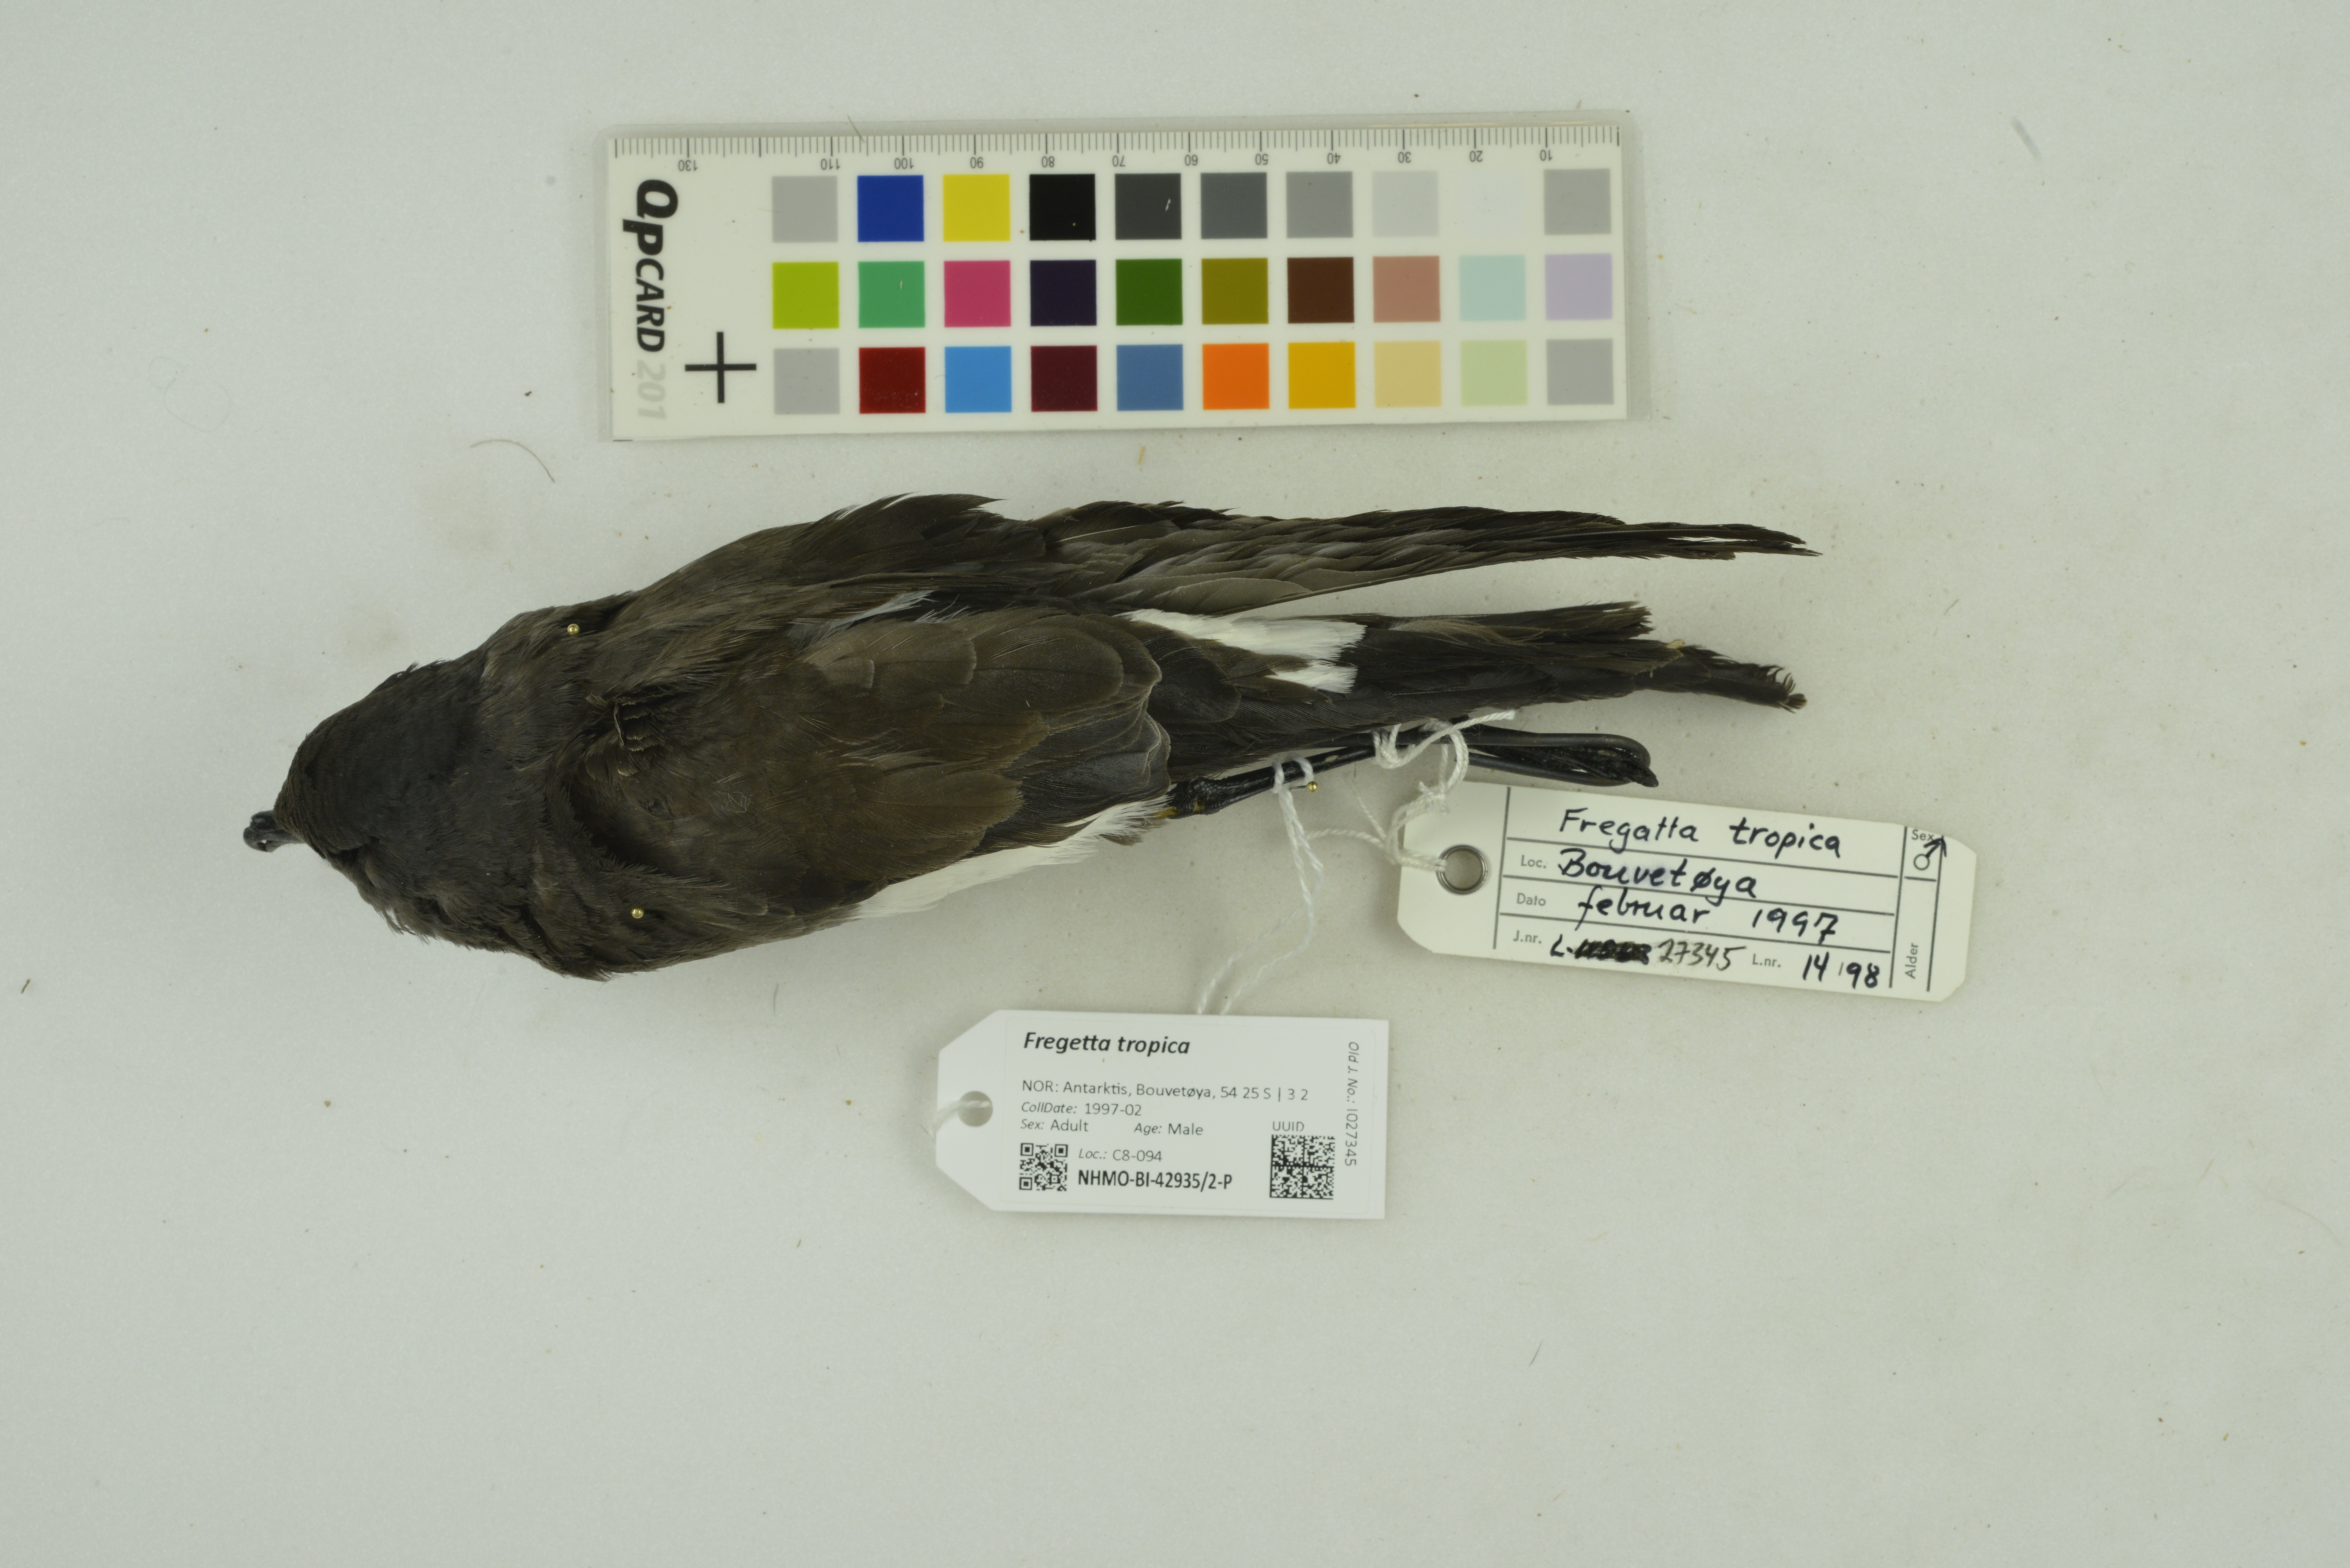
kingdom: Animalia
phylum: Chordata
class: Aves
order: Procellariiformes
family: Hydrobatidae
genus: Fregetta
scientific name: Fregetta tropica
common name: Black-bellied storm-petrel
